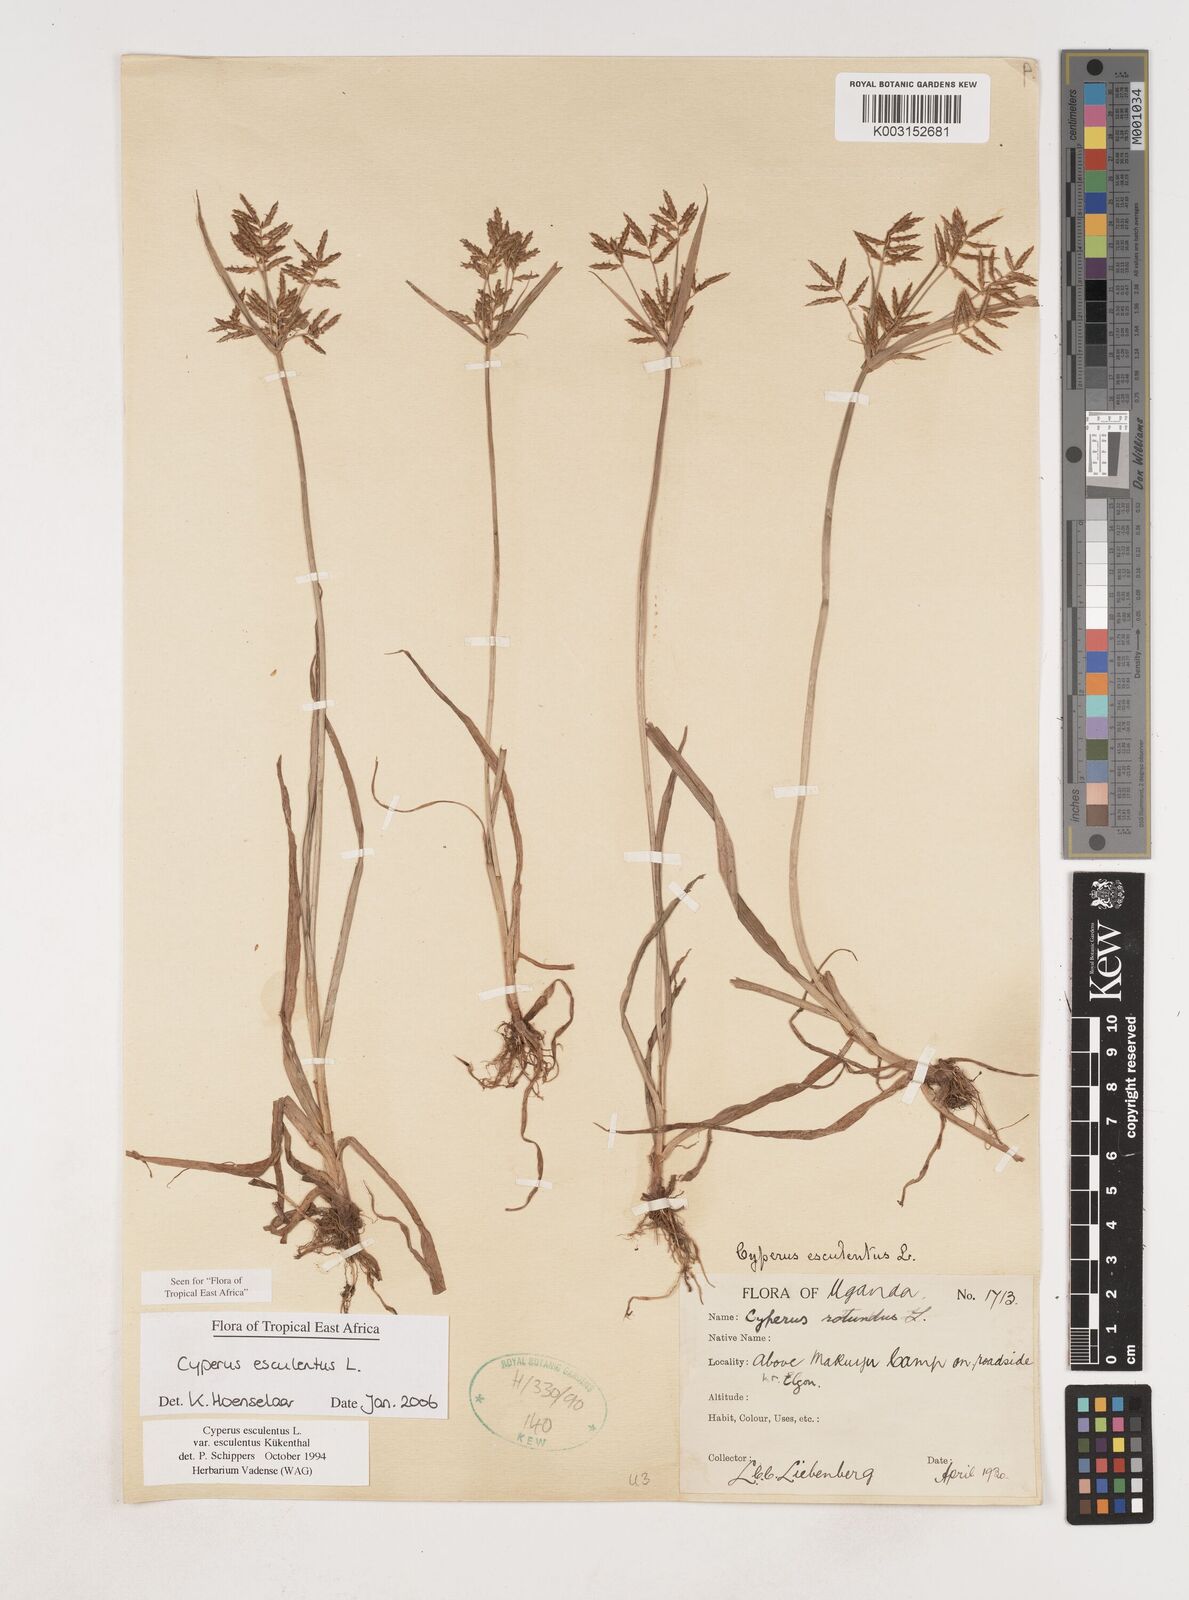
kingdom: Plantae
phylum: Tracheophyta
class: Liliopsida
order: Poales
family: Cyperaceae
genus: Cyperus
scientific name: Cyperus esculentus
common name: Yellow nutsedge
